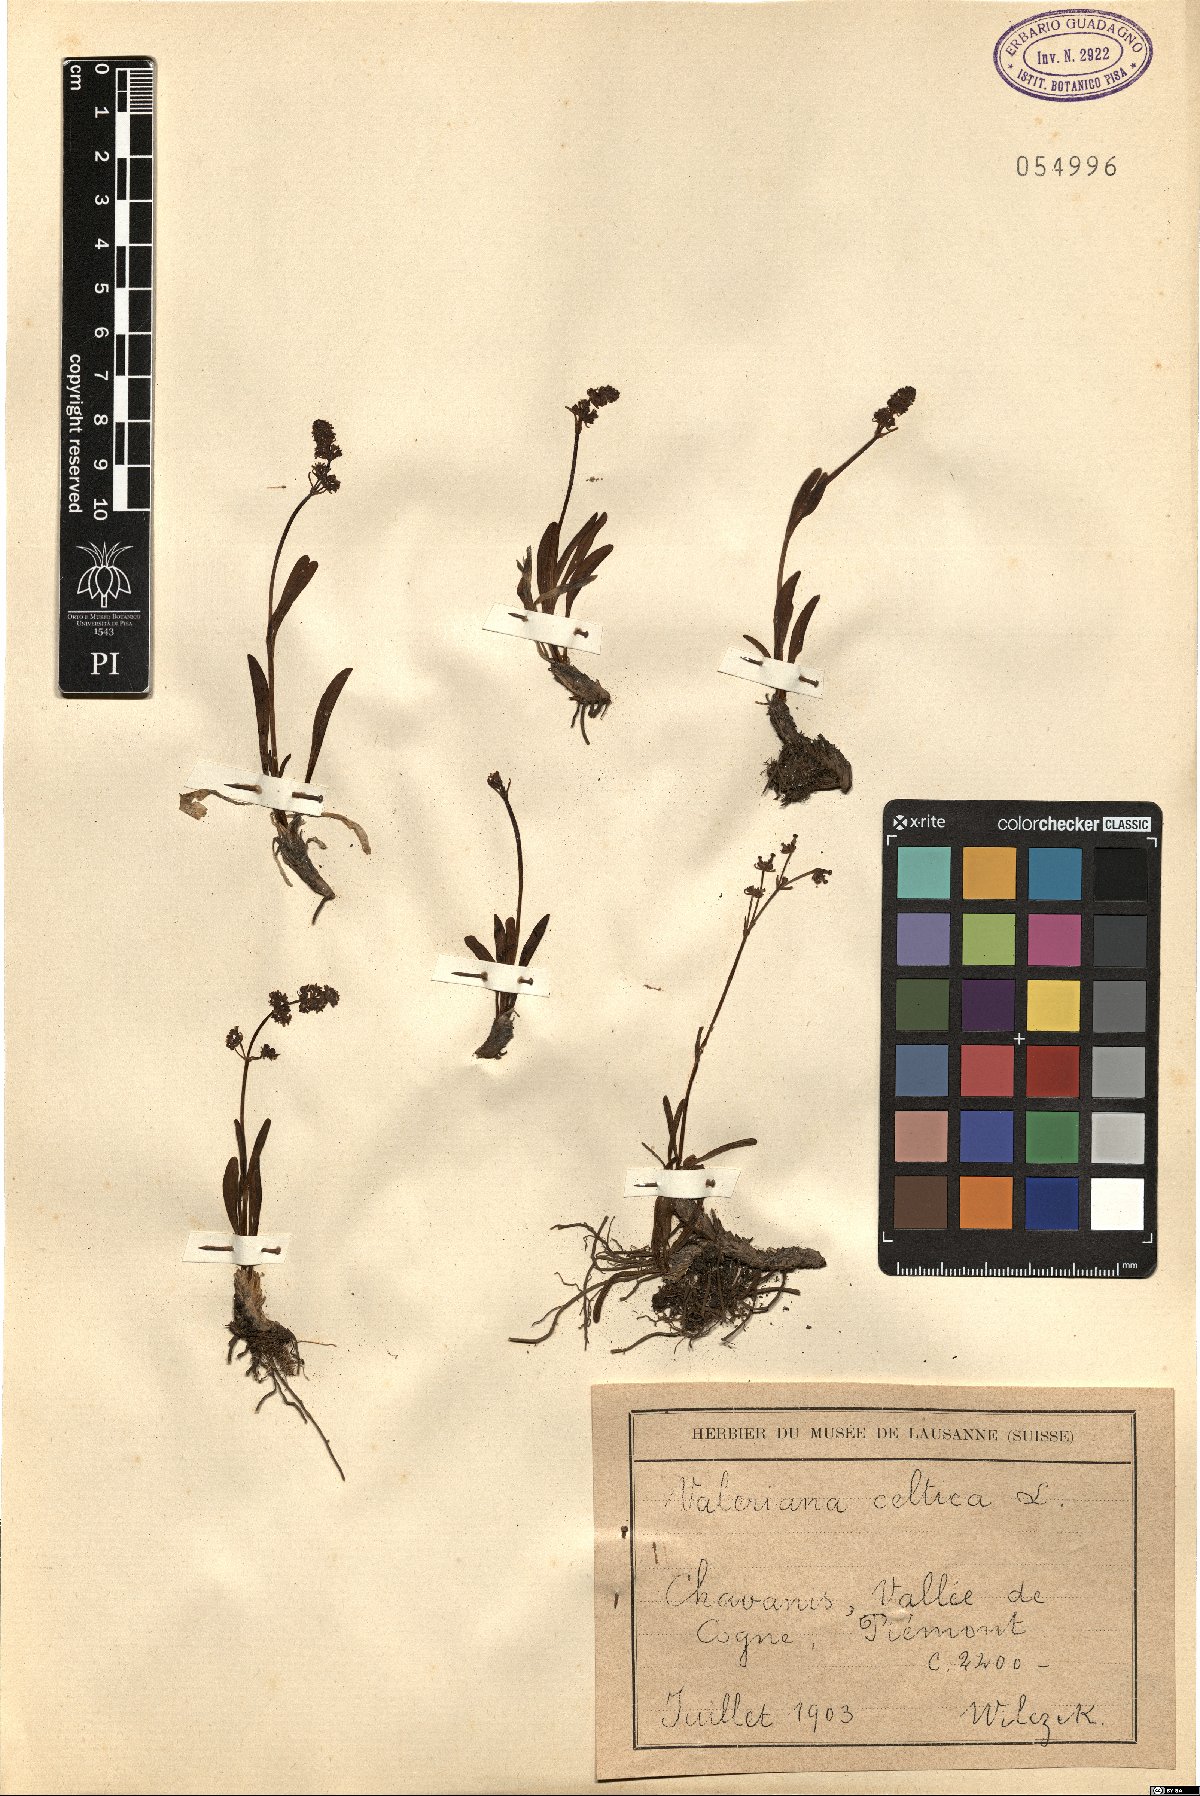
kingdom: Plantae
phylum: Tracheophyta
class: Magnoliopsida
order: Dipsacales
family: Caprifoliaceae
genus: Valeriana
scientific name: Valeriana celtica
